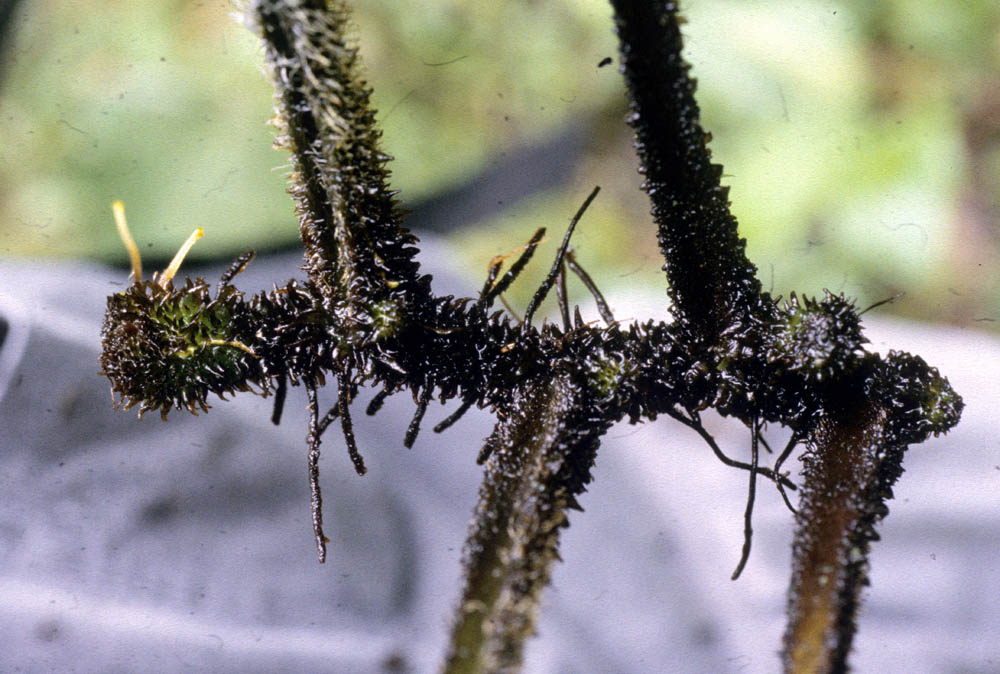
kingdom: Plantae
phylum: Tracheophyta
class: Polypodiopsida
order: Polypodiales
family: Dennstaedtiaceae
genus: Dennstaedtia
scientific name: Dennstaedtia sprucei
